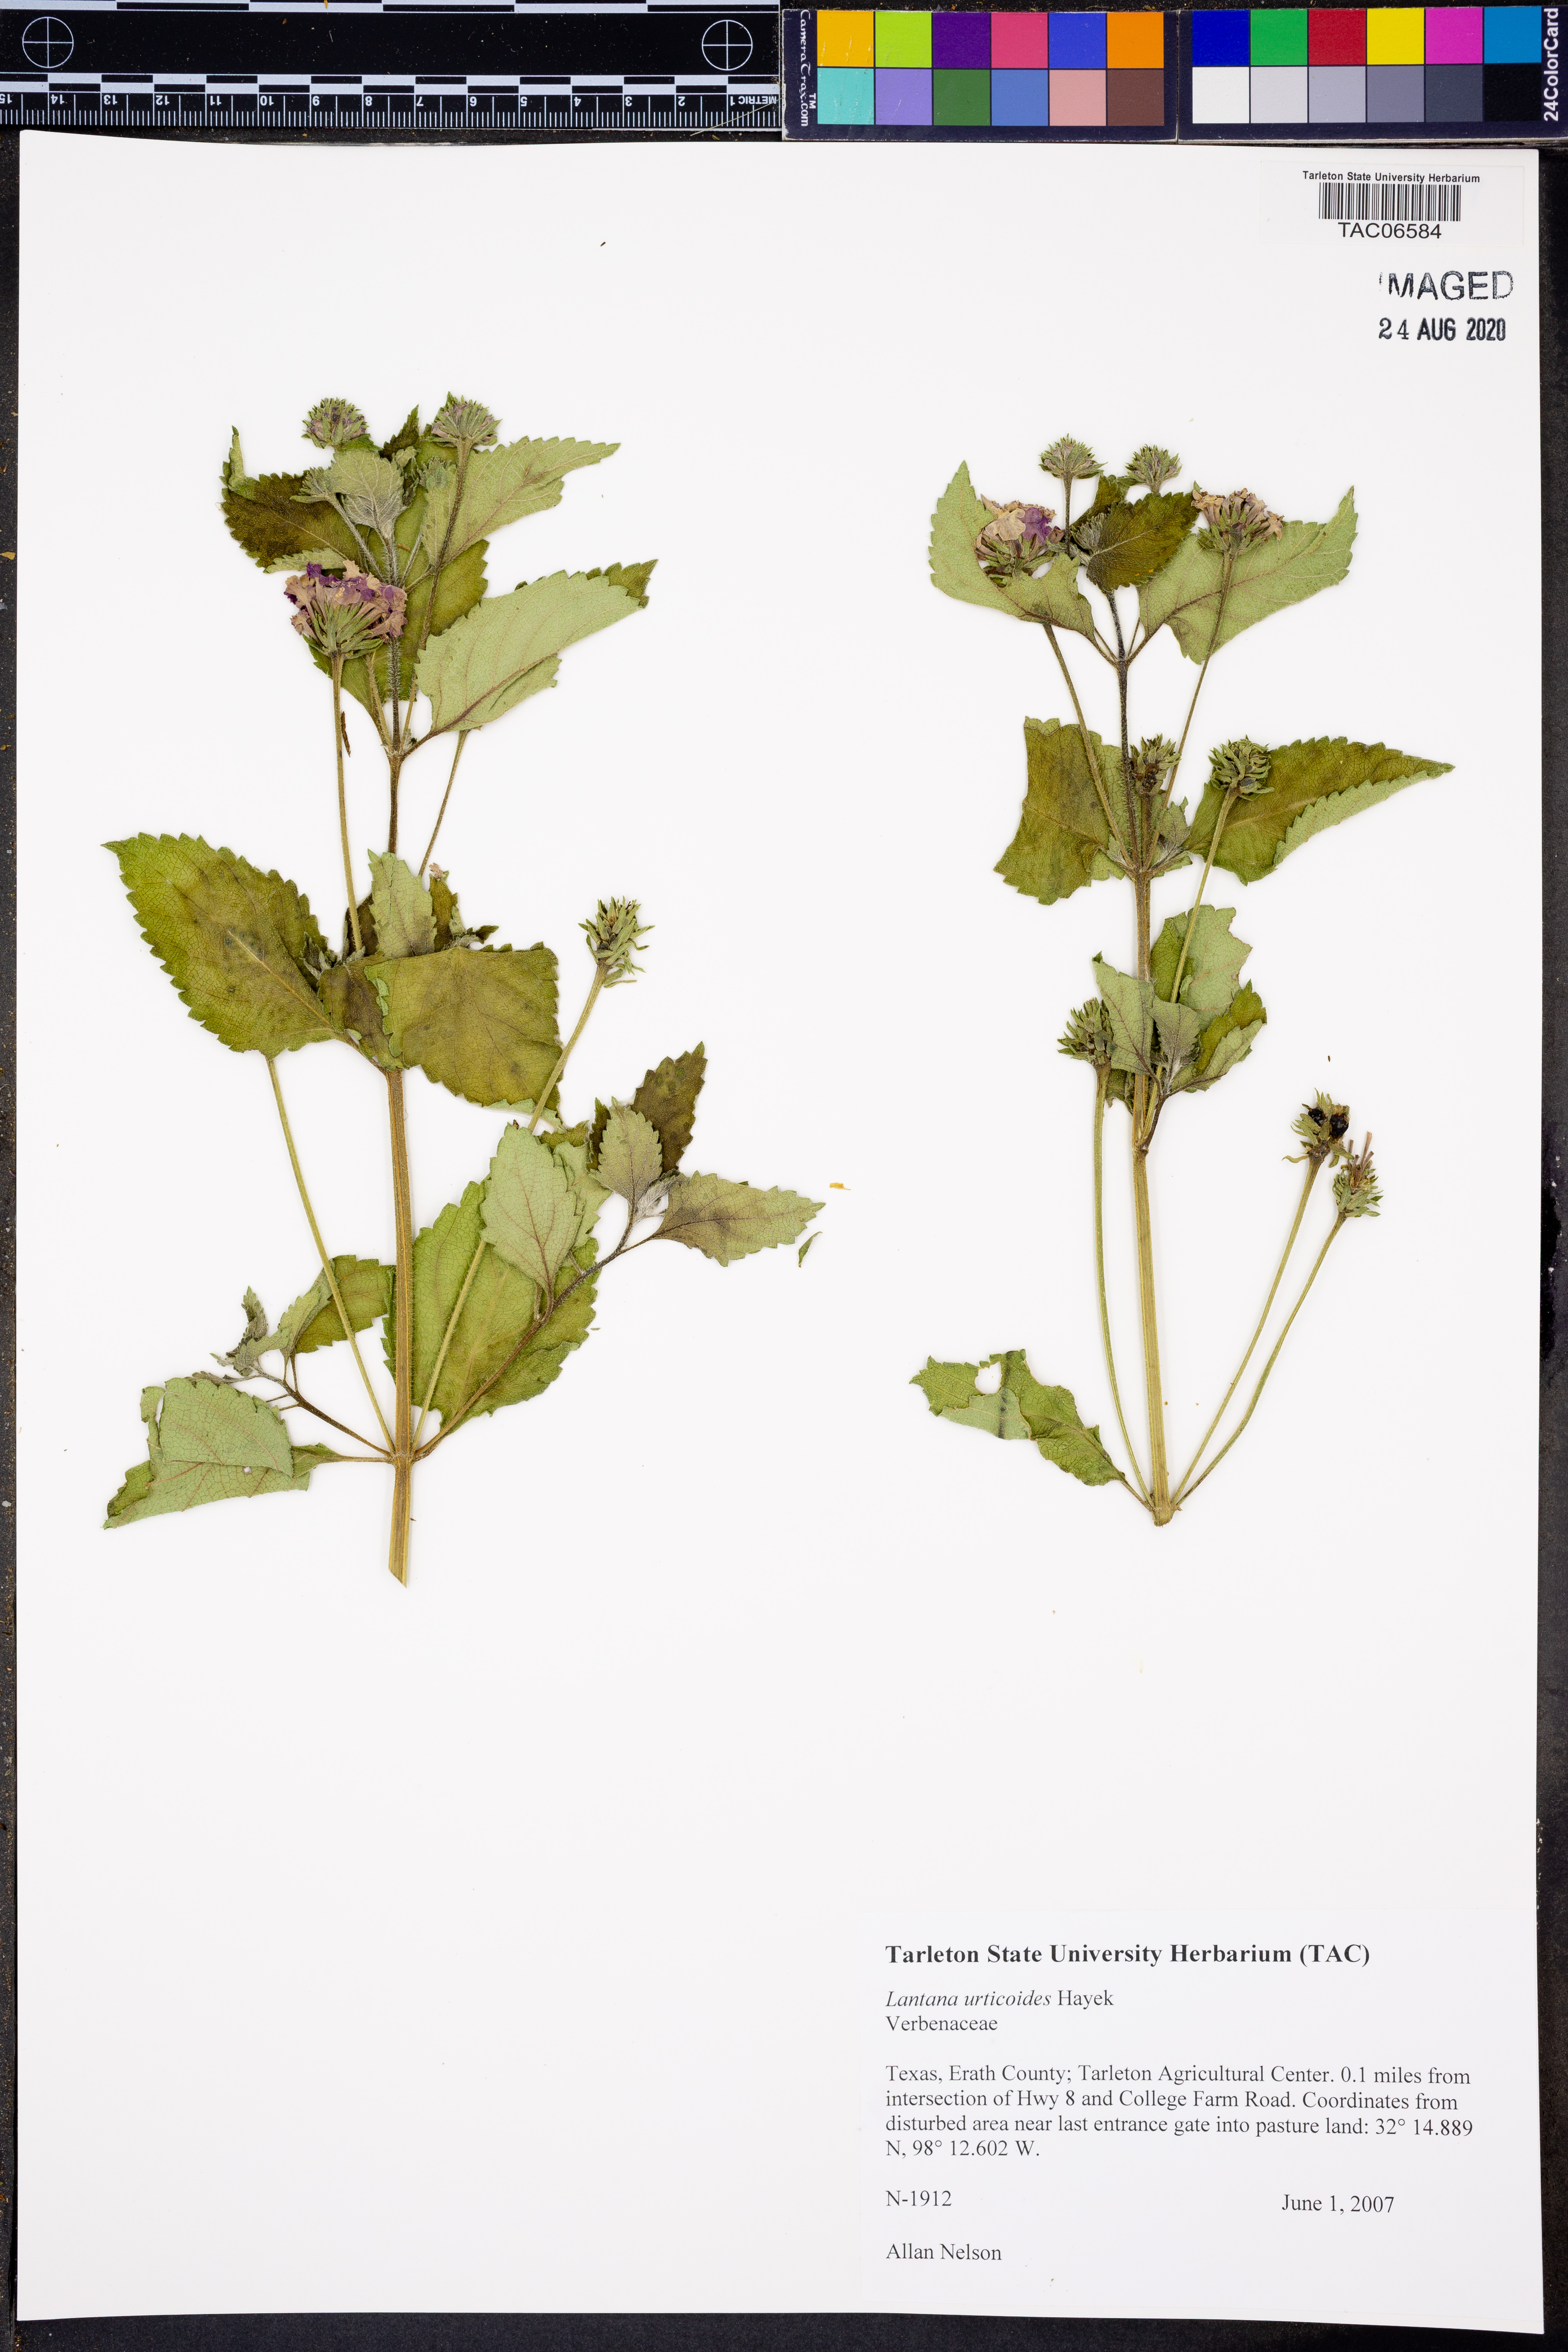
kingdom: Plantae
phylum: Tracheophyta
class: Magnoliopsida
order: Lamiales
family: Verbenaceae
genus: Lantana
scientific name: Lantana urticoides
